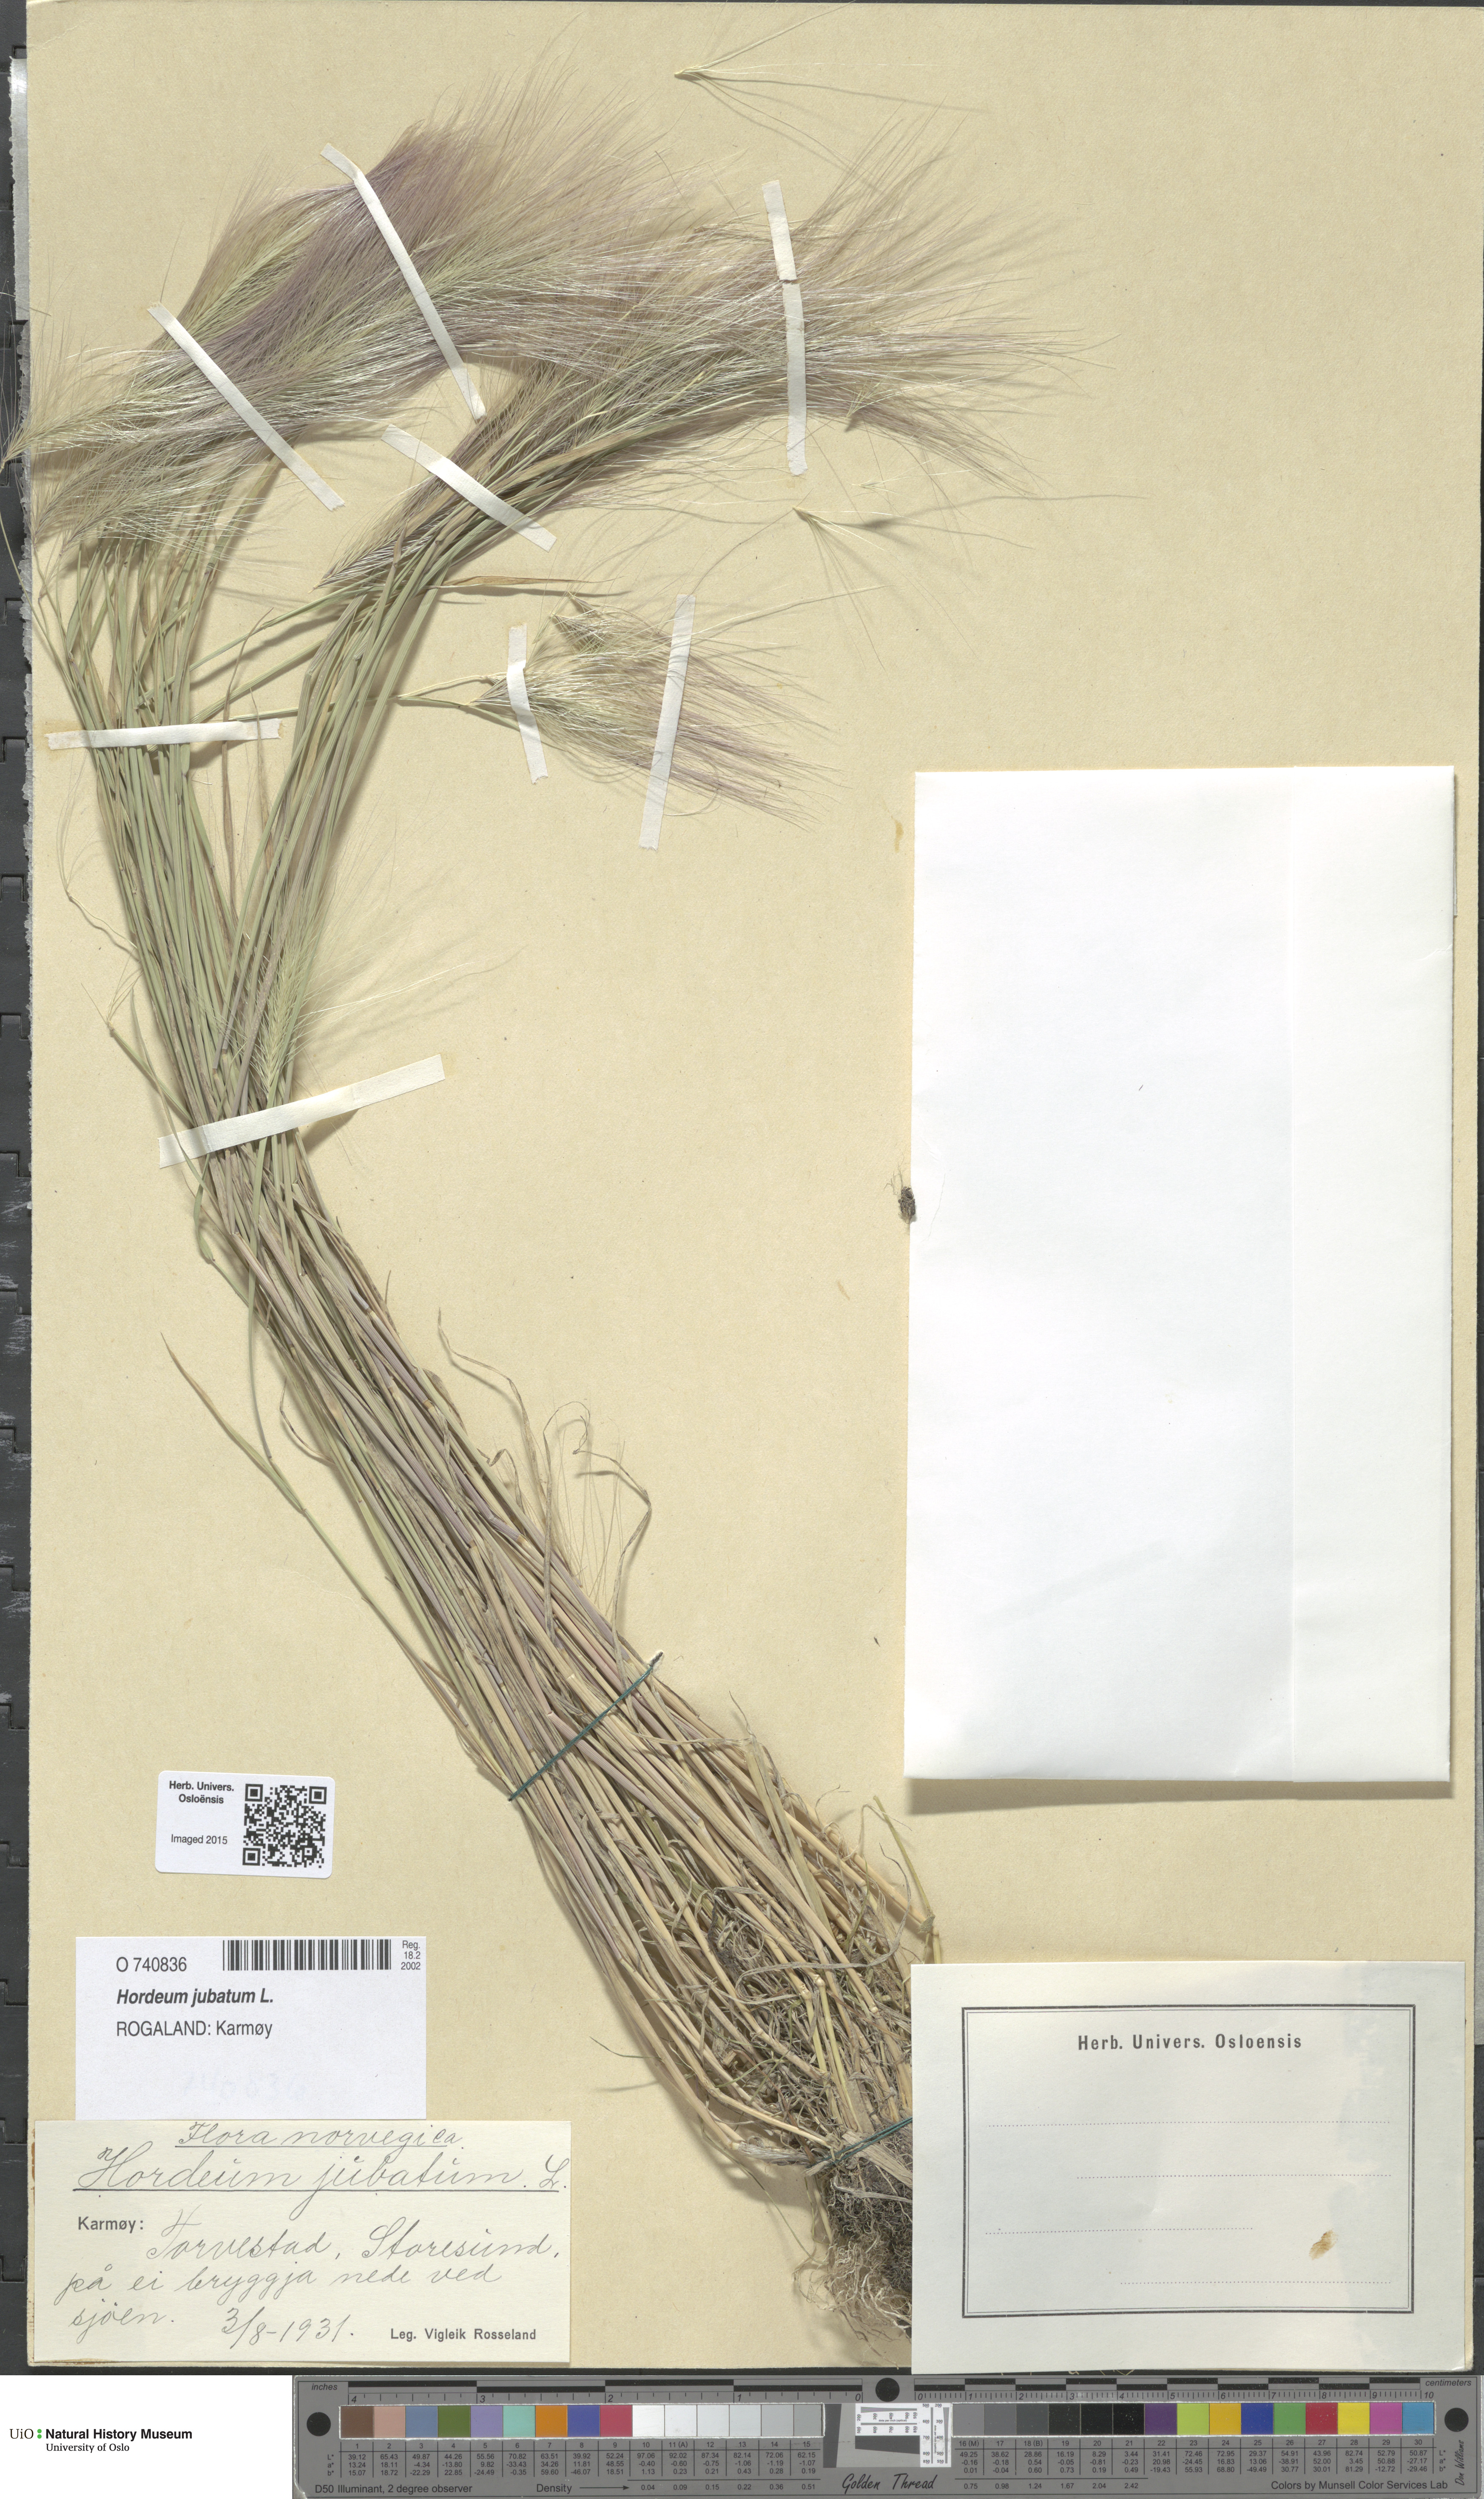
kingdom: Plantae
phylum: Tracheophyta
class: Liliopsida
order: Poales
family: Poaceae
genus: Hordeum
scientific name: Hordeum jubatum
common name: Foxtail barley
